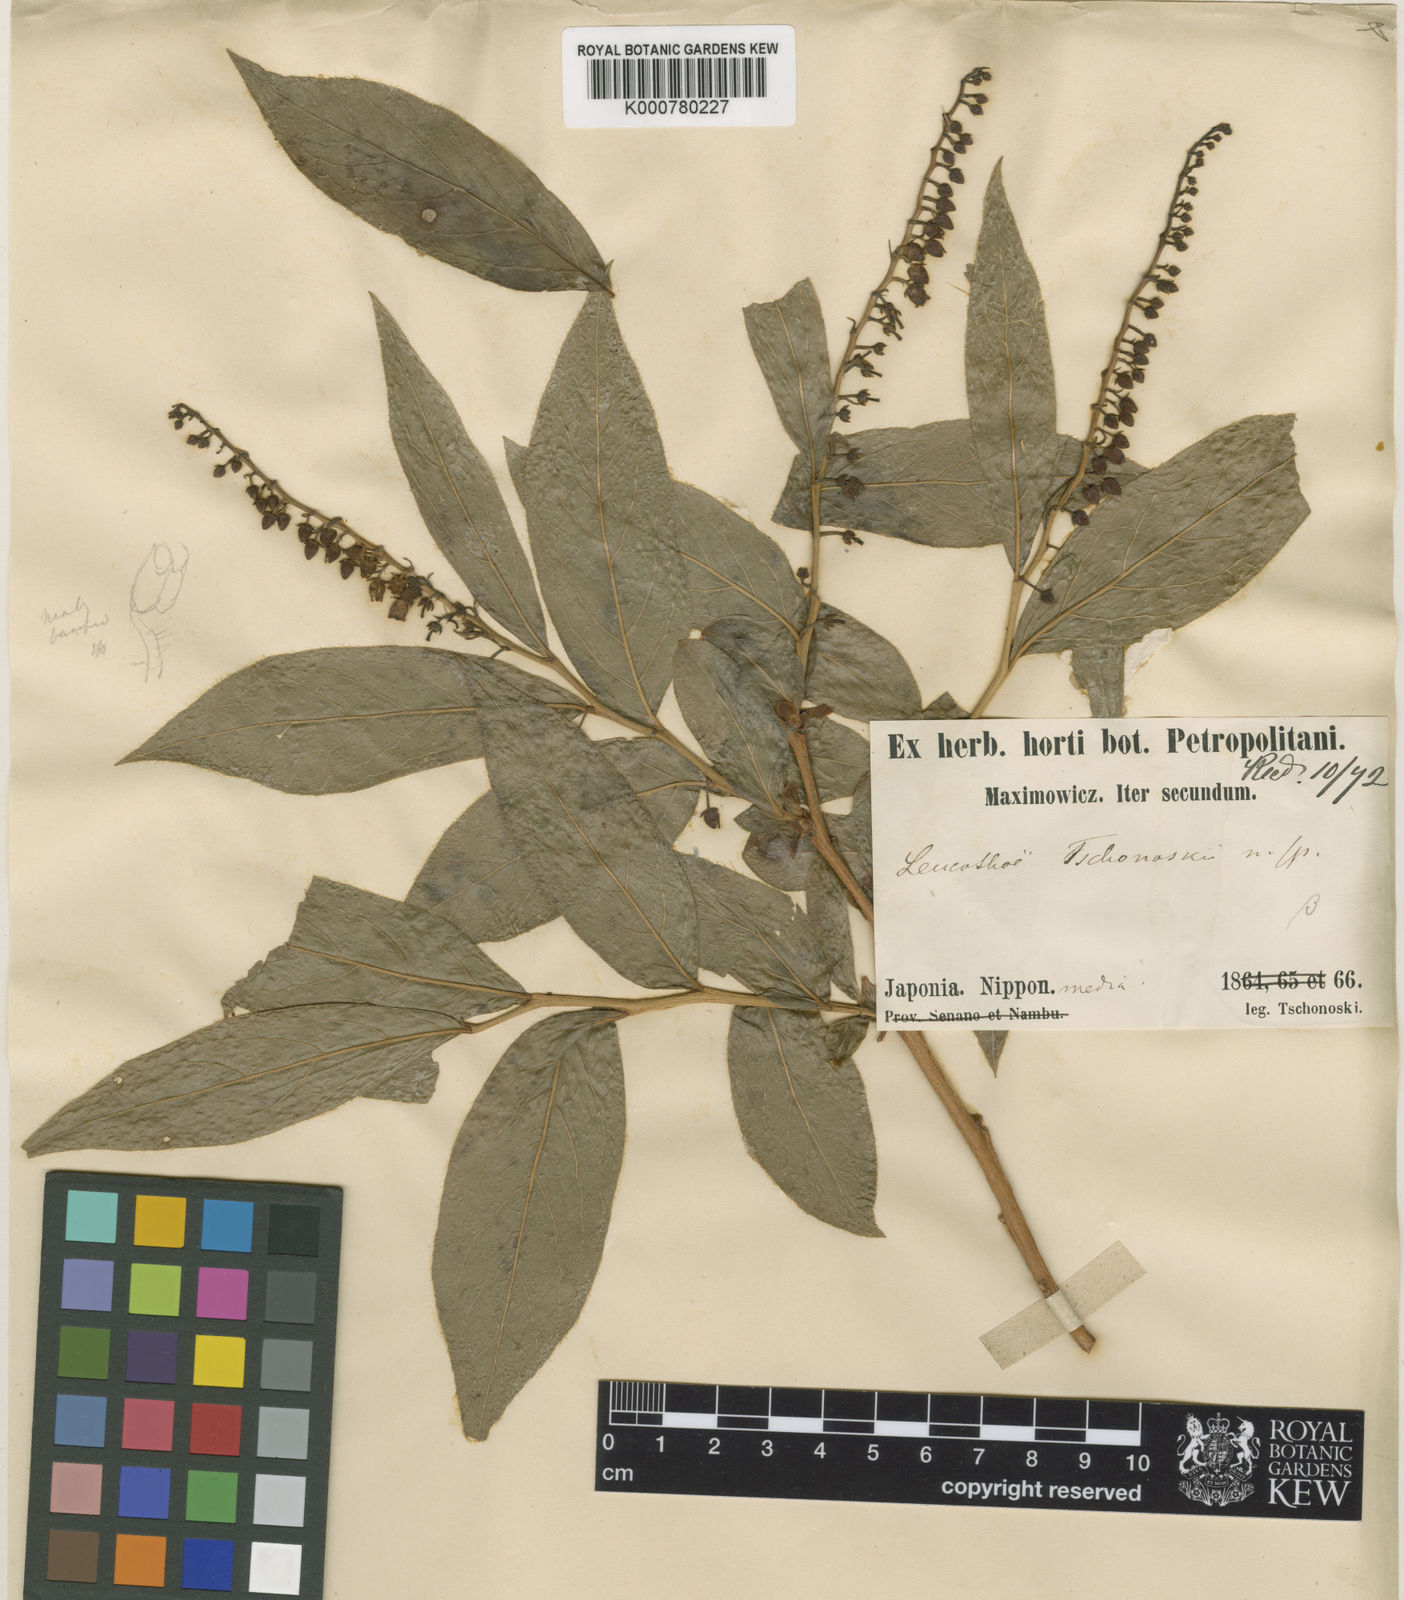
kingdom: Plantae
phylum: Tracheophyta
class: Magnoliopsida
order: Ericales
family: Ericaceae
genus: Leucothoe
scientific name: Leucothoe grayana
